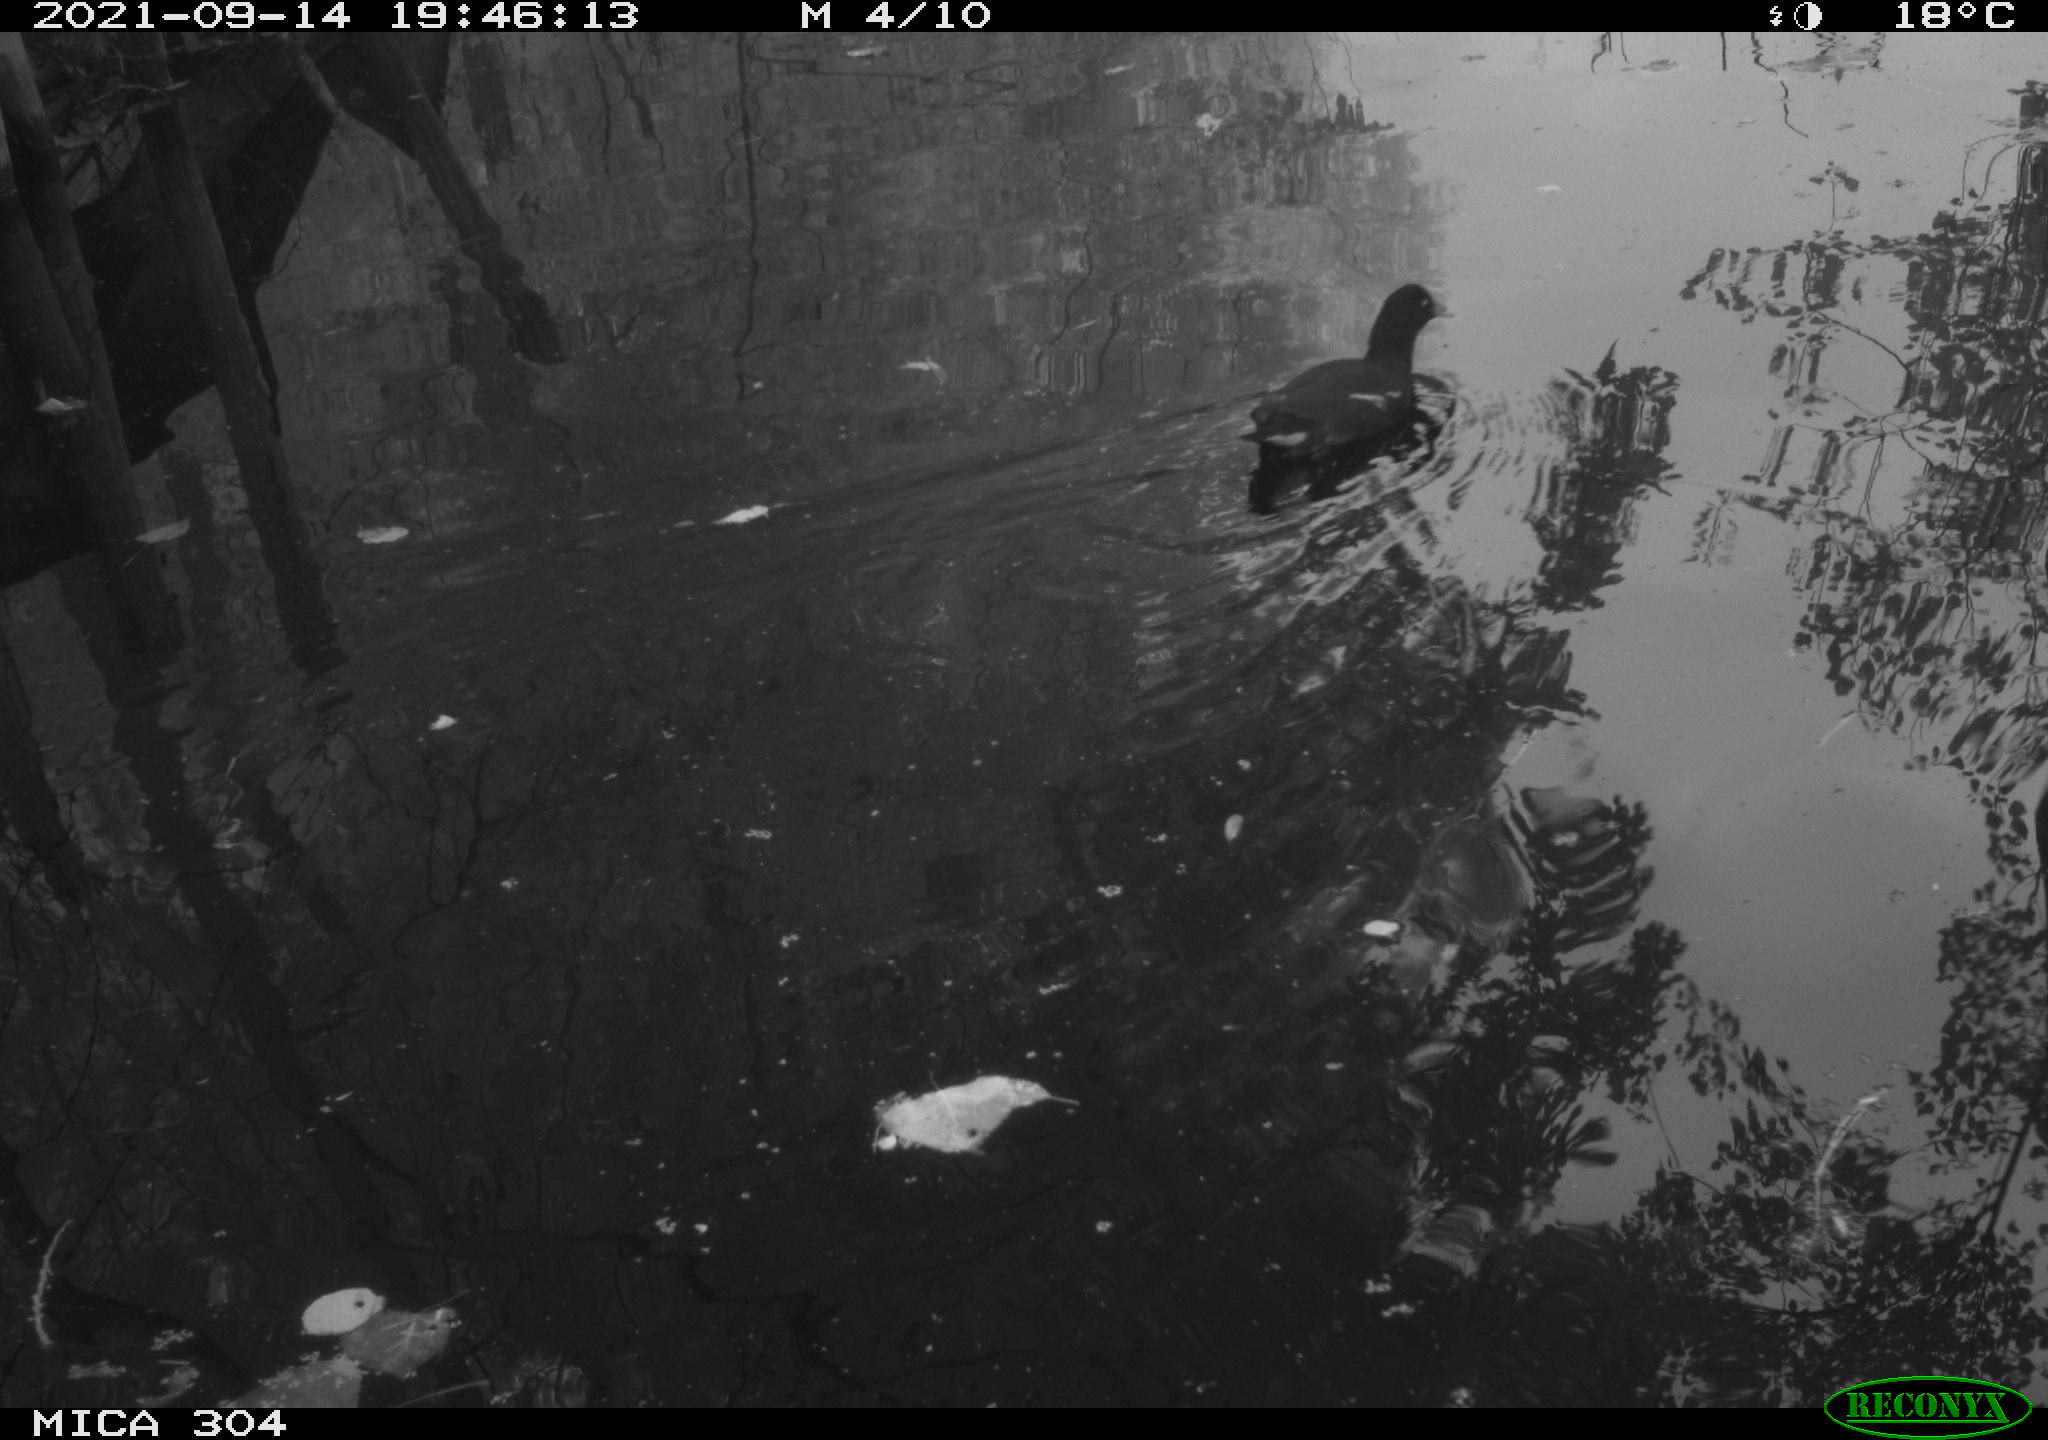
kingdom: Animalia
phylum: Chordata
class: Aves
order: Gruiformes
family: Rallidae
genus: Gallinula
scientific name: Gallinula chloropus
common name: Common moorhen
